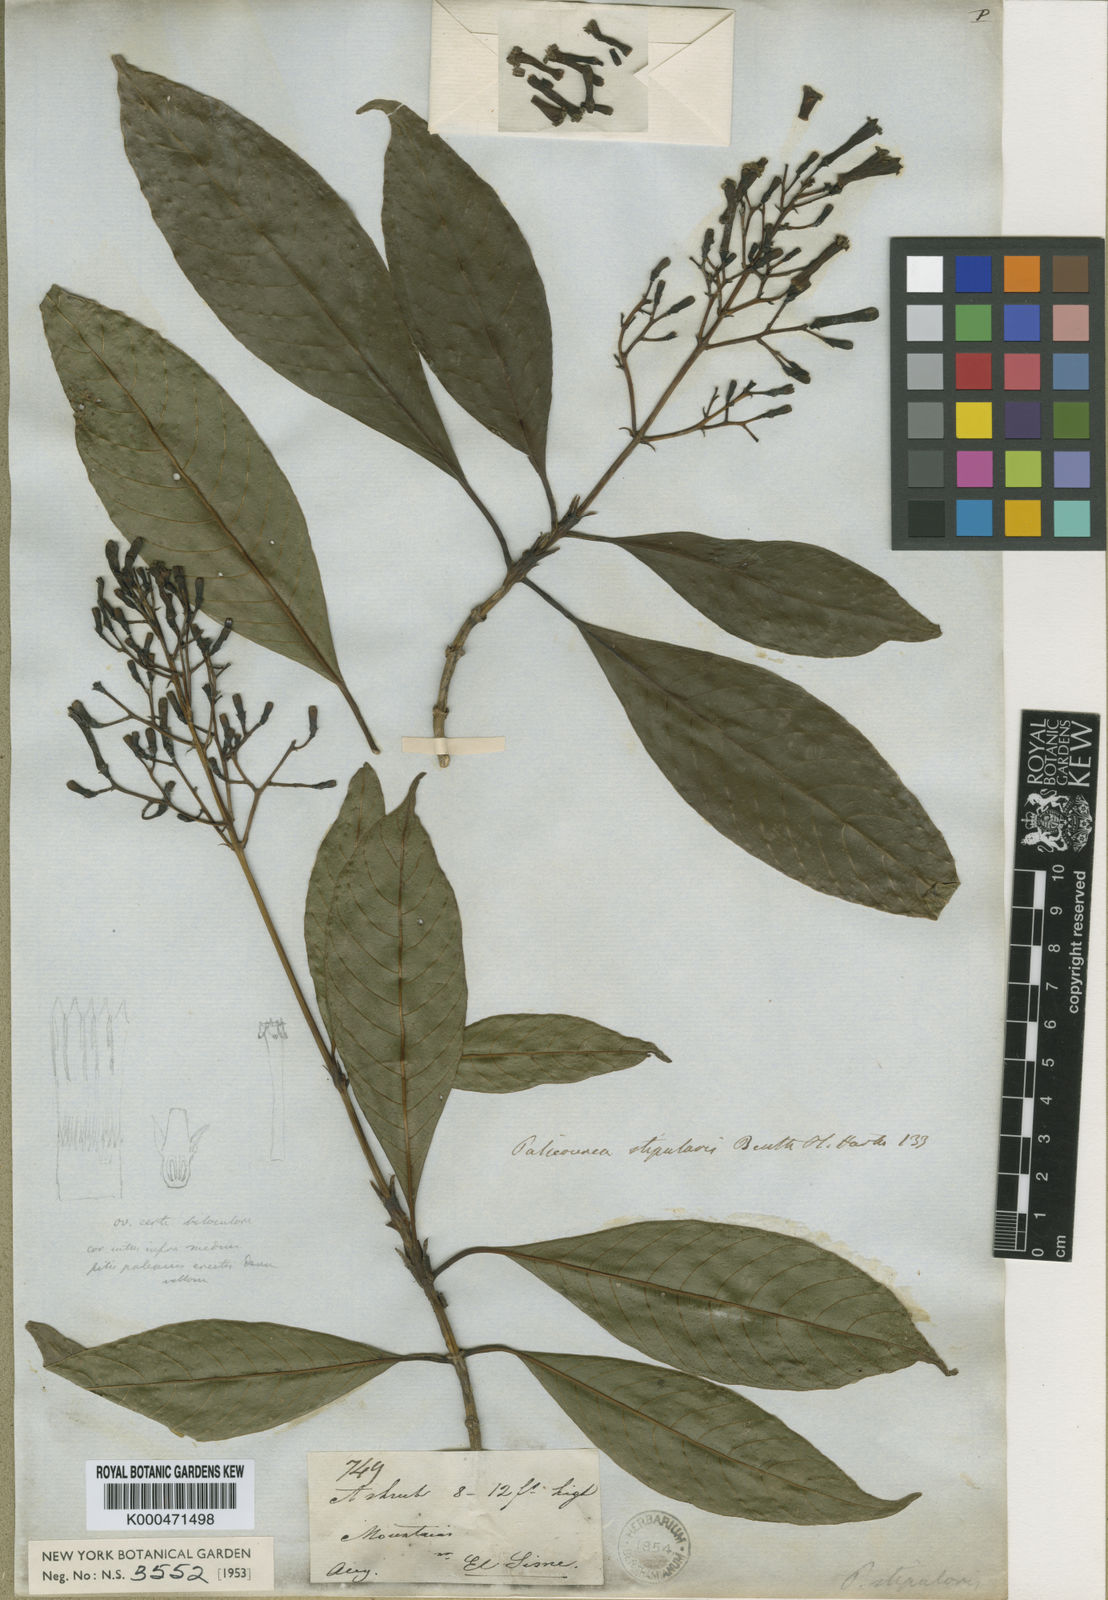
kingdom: Plantae
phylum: Tracheophyta
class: Magnoliopsida
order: Gentianales
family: Rubiaceae
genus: Palicourea
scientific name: Palicourea stipularis
